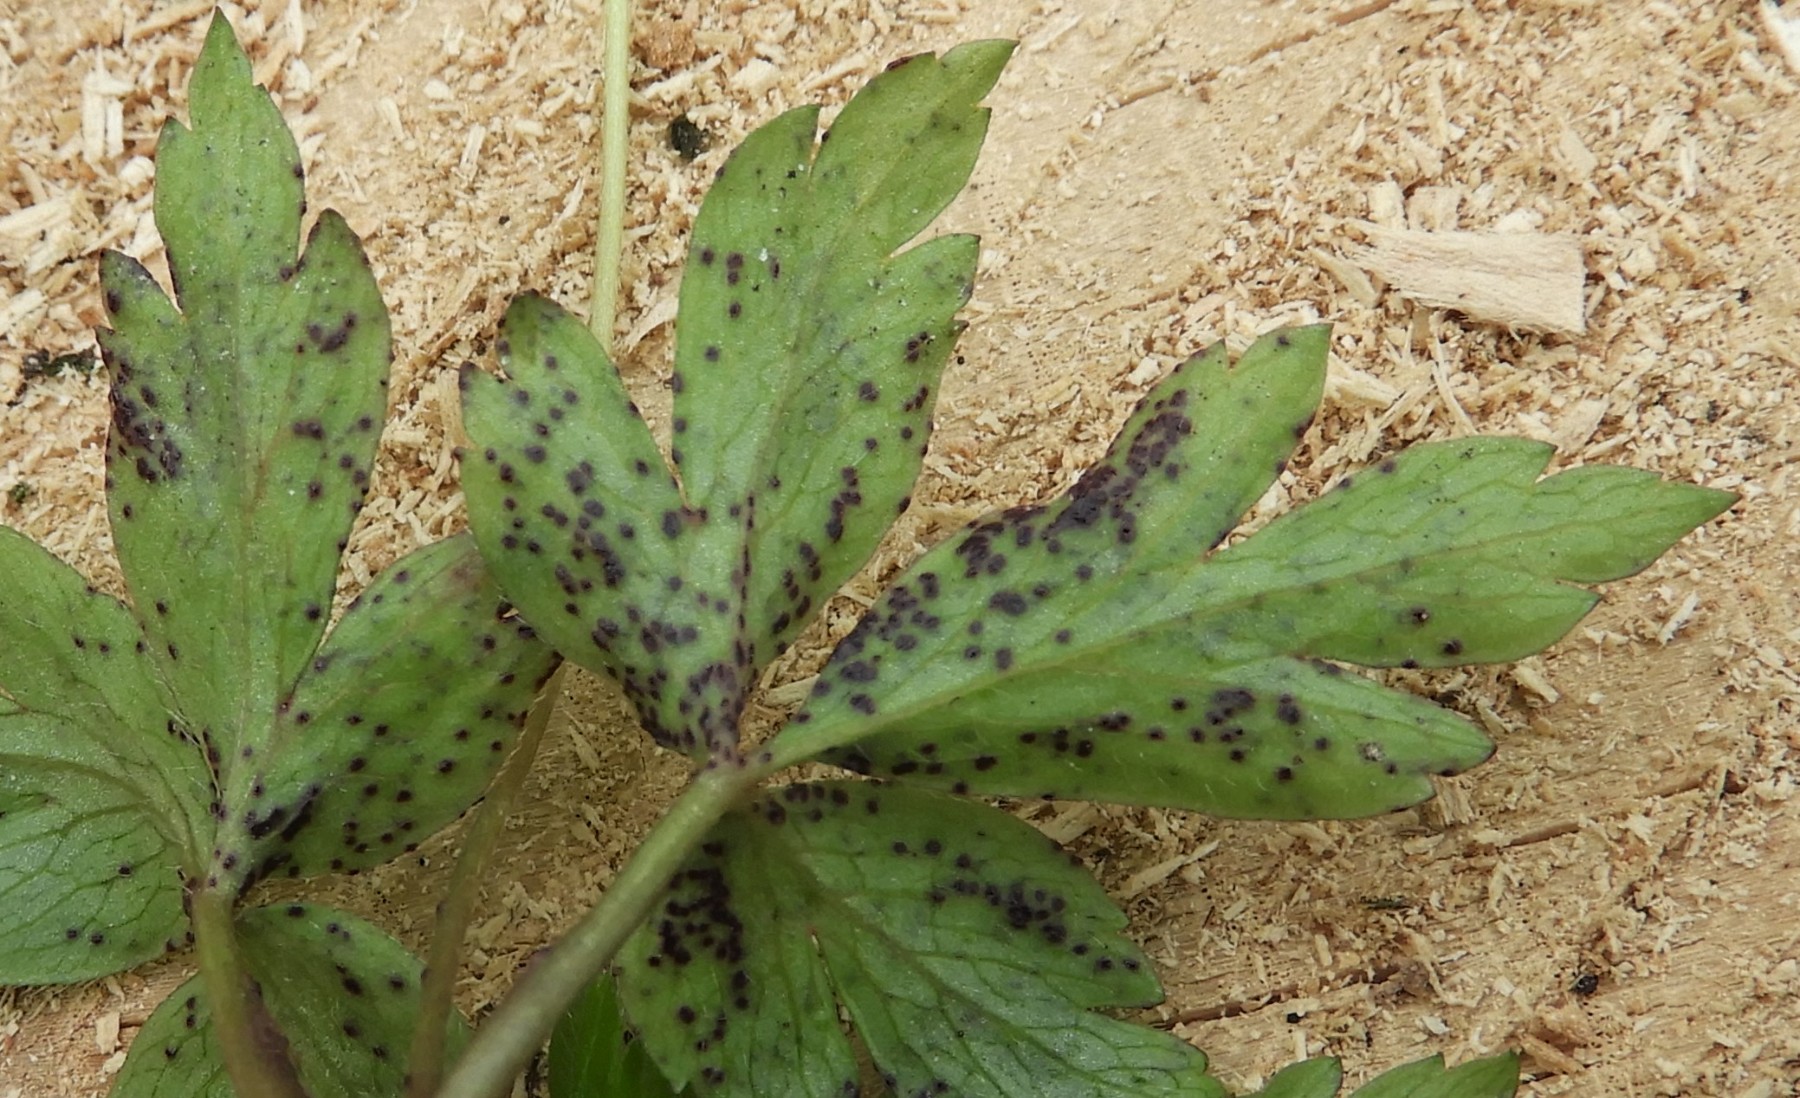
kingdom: Fungi
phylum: Chytridiomycota
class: Chytridiomycetes
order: Chytridiales
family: Synchytriaceae
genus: Synchytrium
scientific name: Synchytrium anemones
